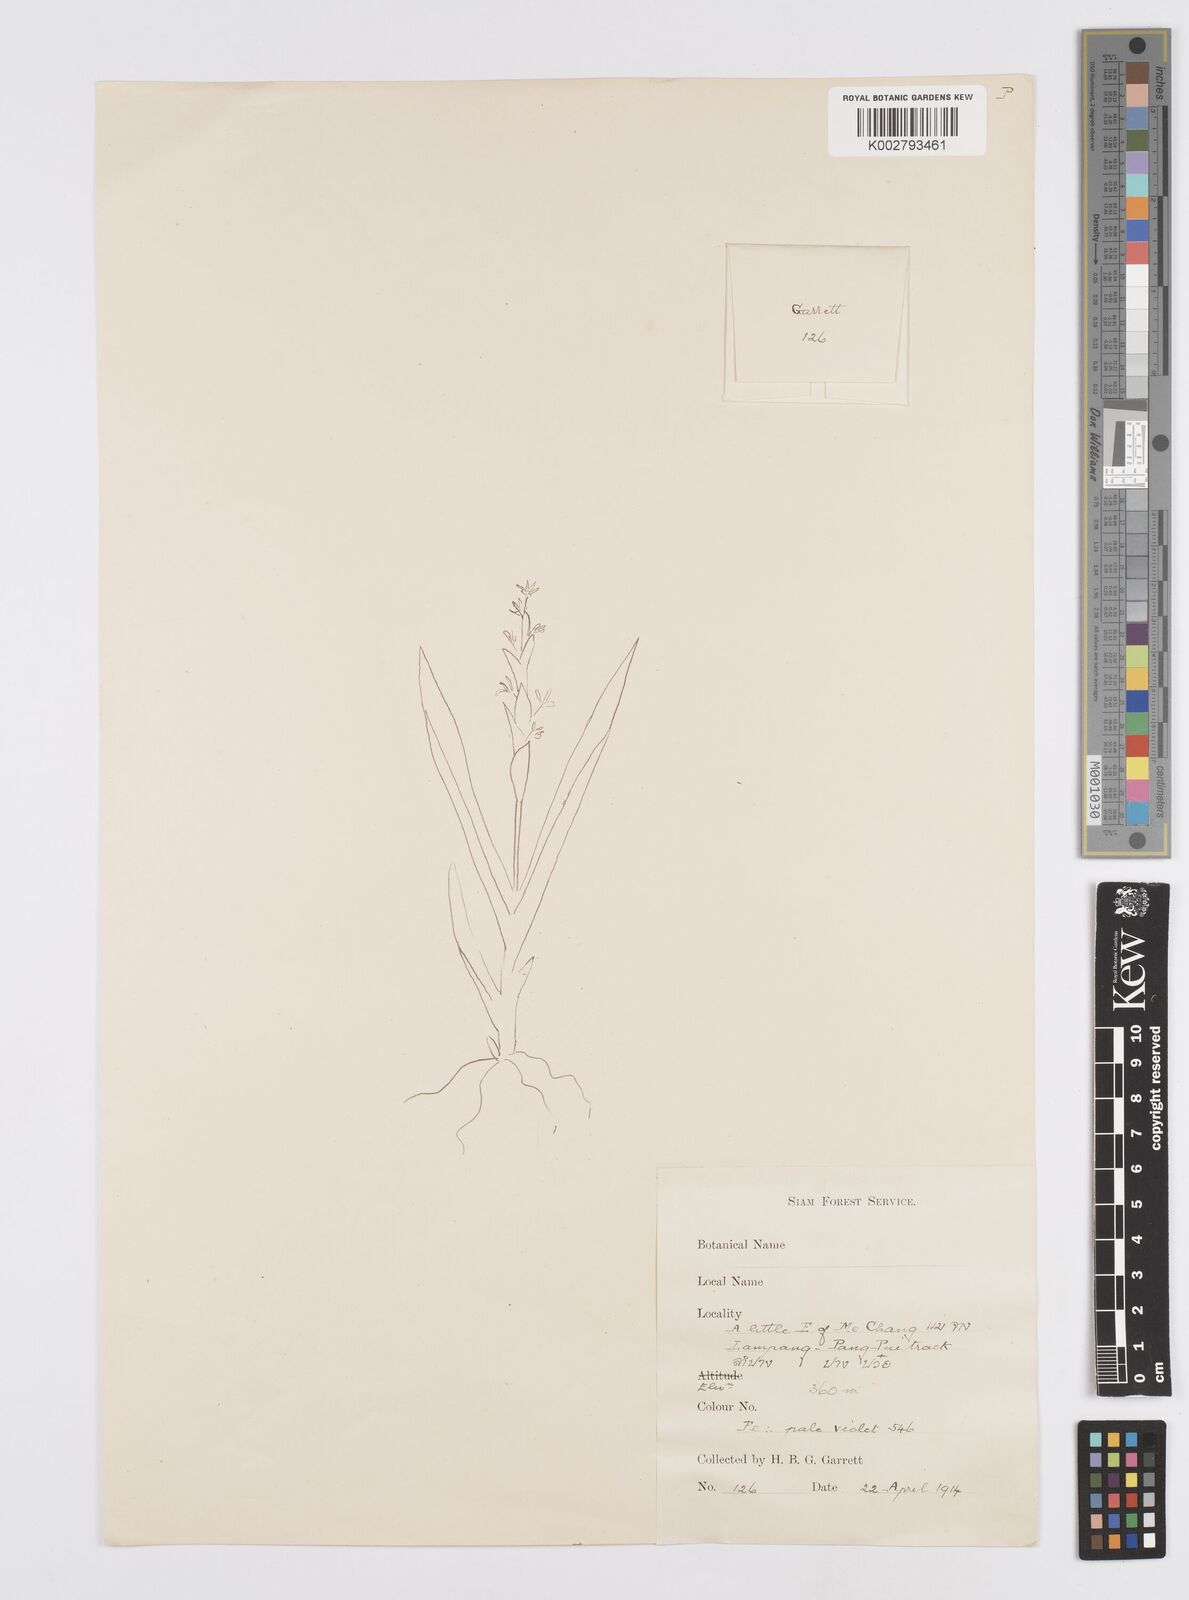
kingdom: Plantae
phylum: Tracheophyta
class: Liliopsida
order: Commelinales
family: Commelinaceae
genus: Murdannia
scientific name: Murdannia edulis
